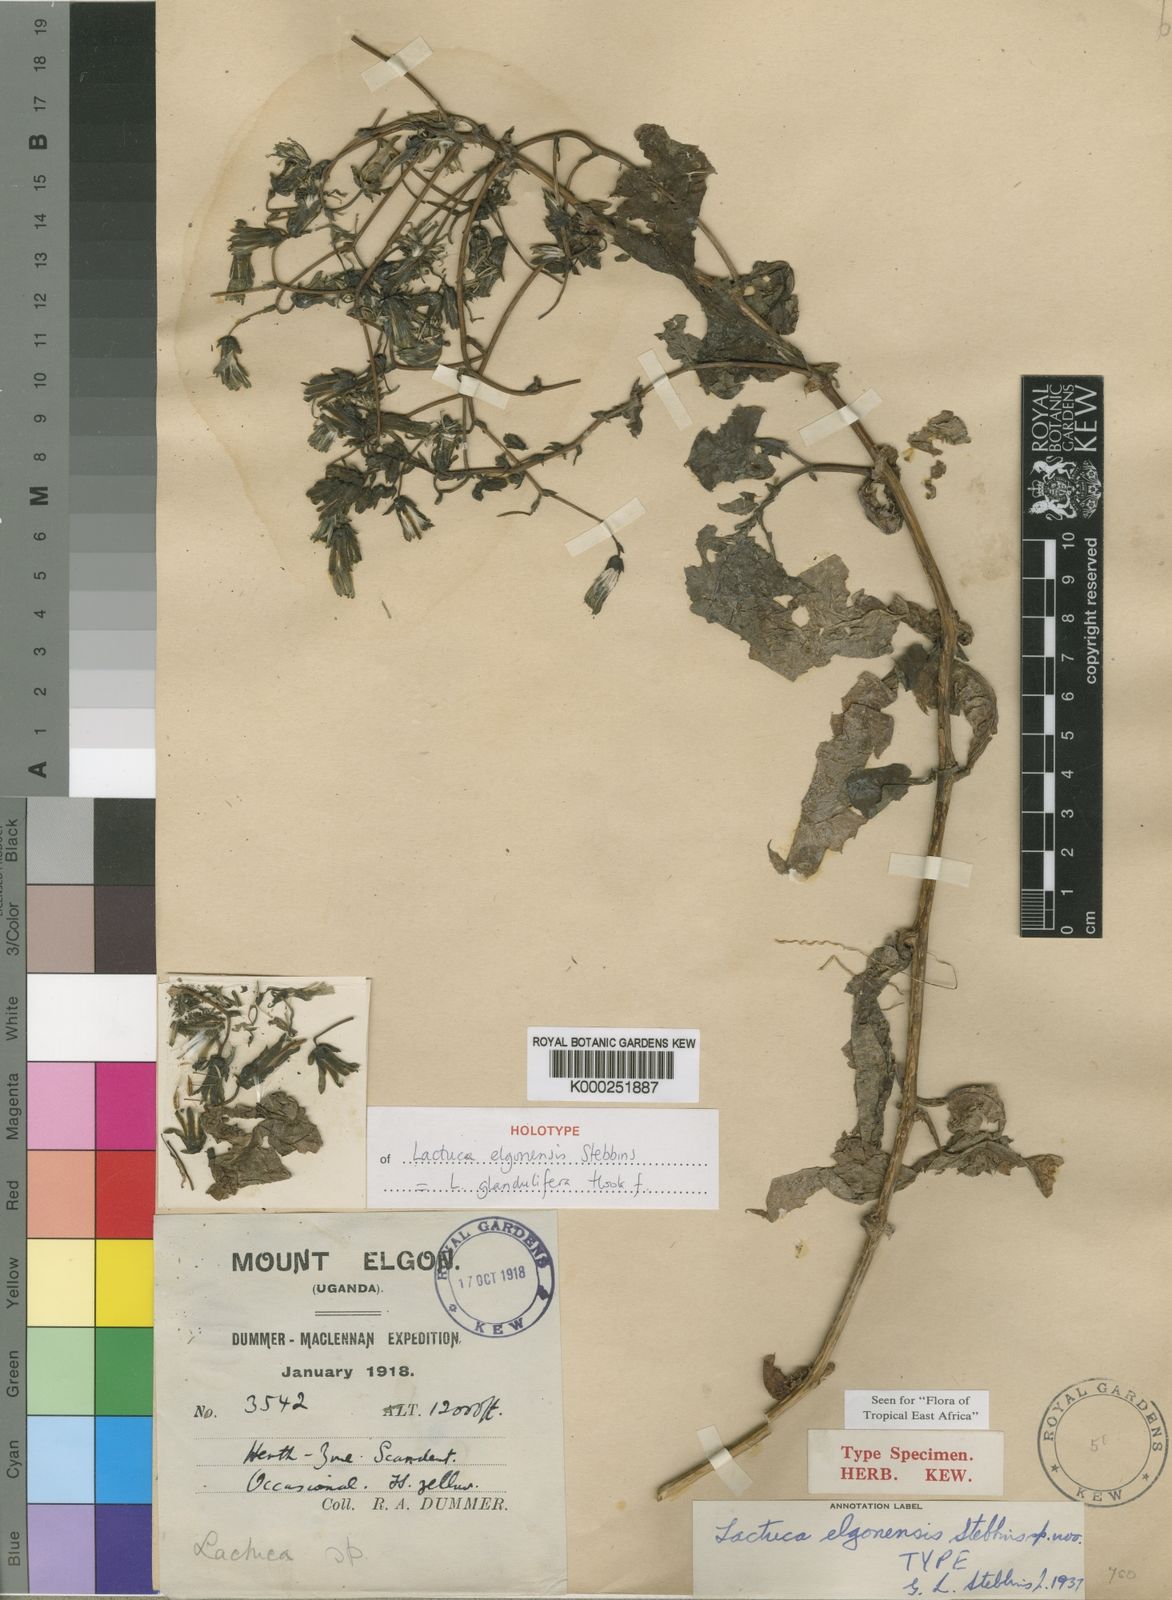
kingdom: Plantae
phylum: Tracheophyta
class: Magnoliopsida
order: Asterales
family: Asteraceae
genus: Lactuca
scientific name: Lactuca glandulifera
